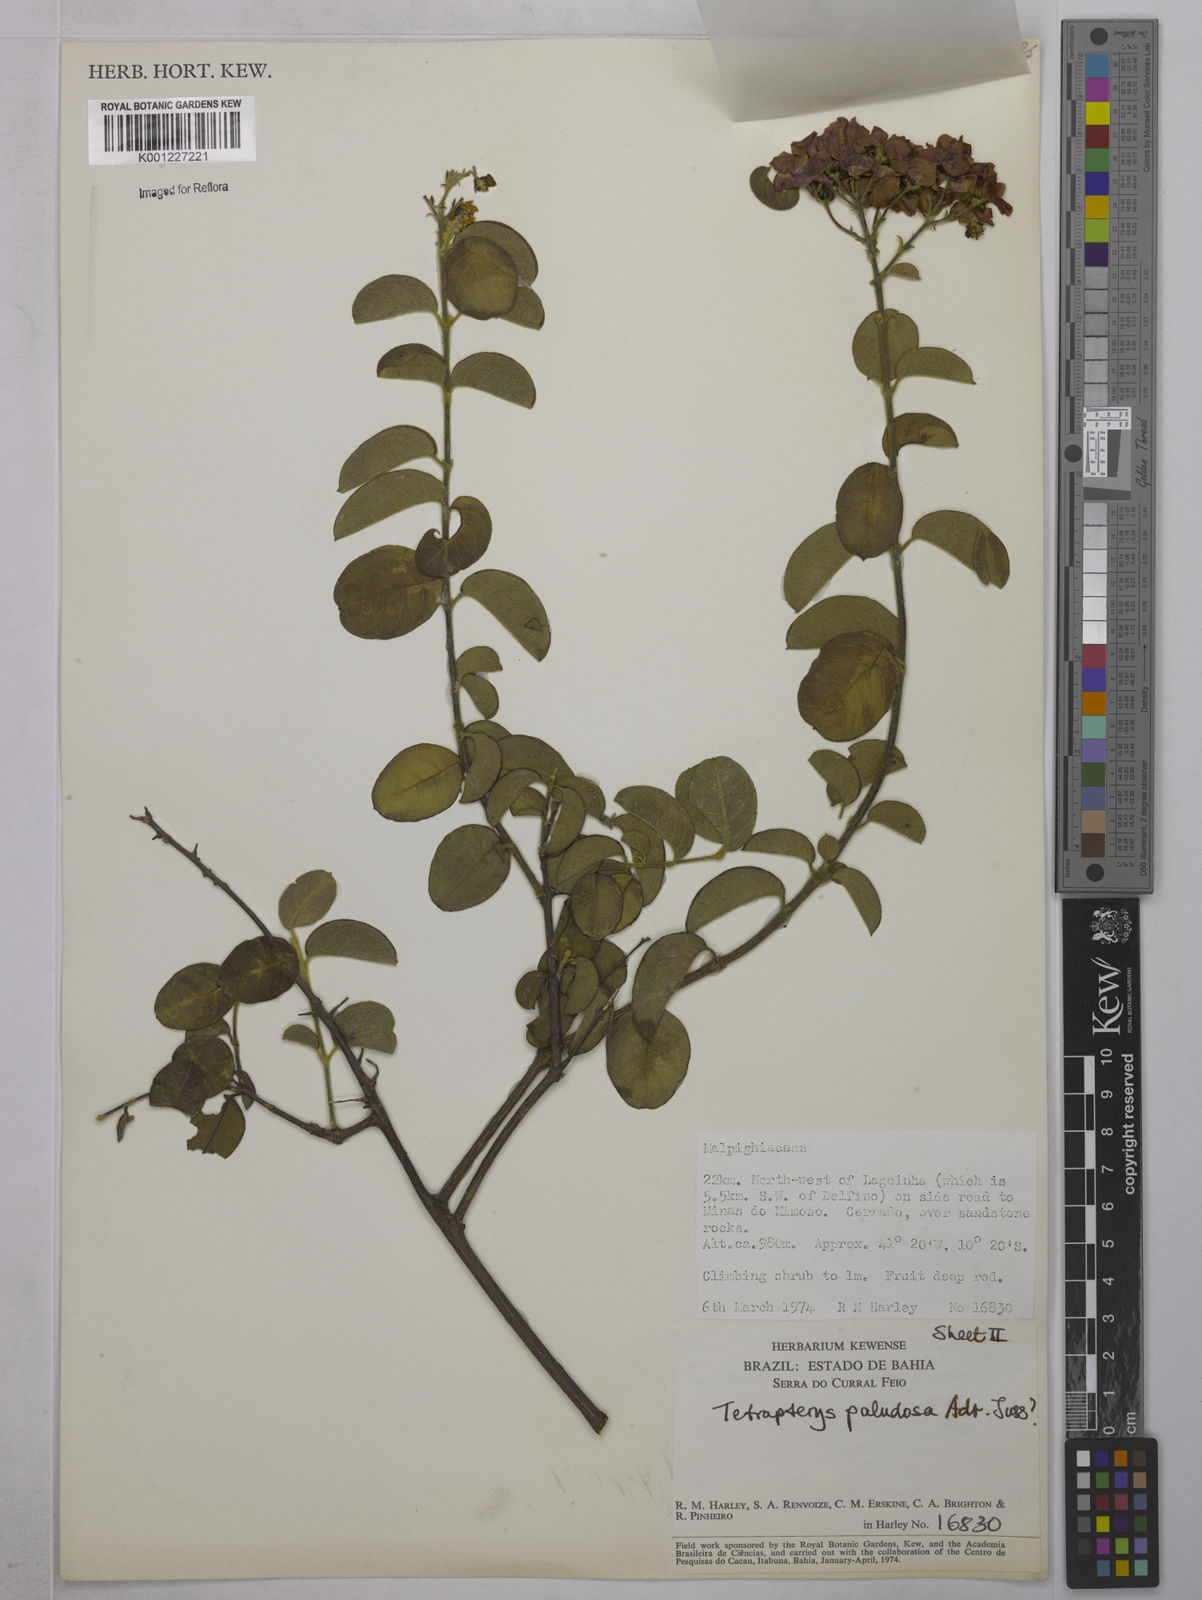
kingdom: Plantae
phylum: Tracheophyta
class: Magnoliopsida
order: Malpighiales
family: Malpighiaceae
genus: Glicophyllum
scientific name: Glicophyllum paludosum
